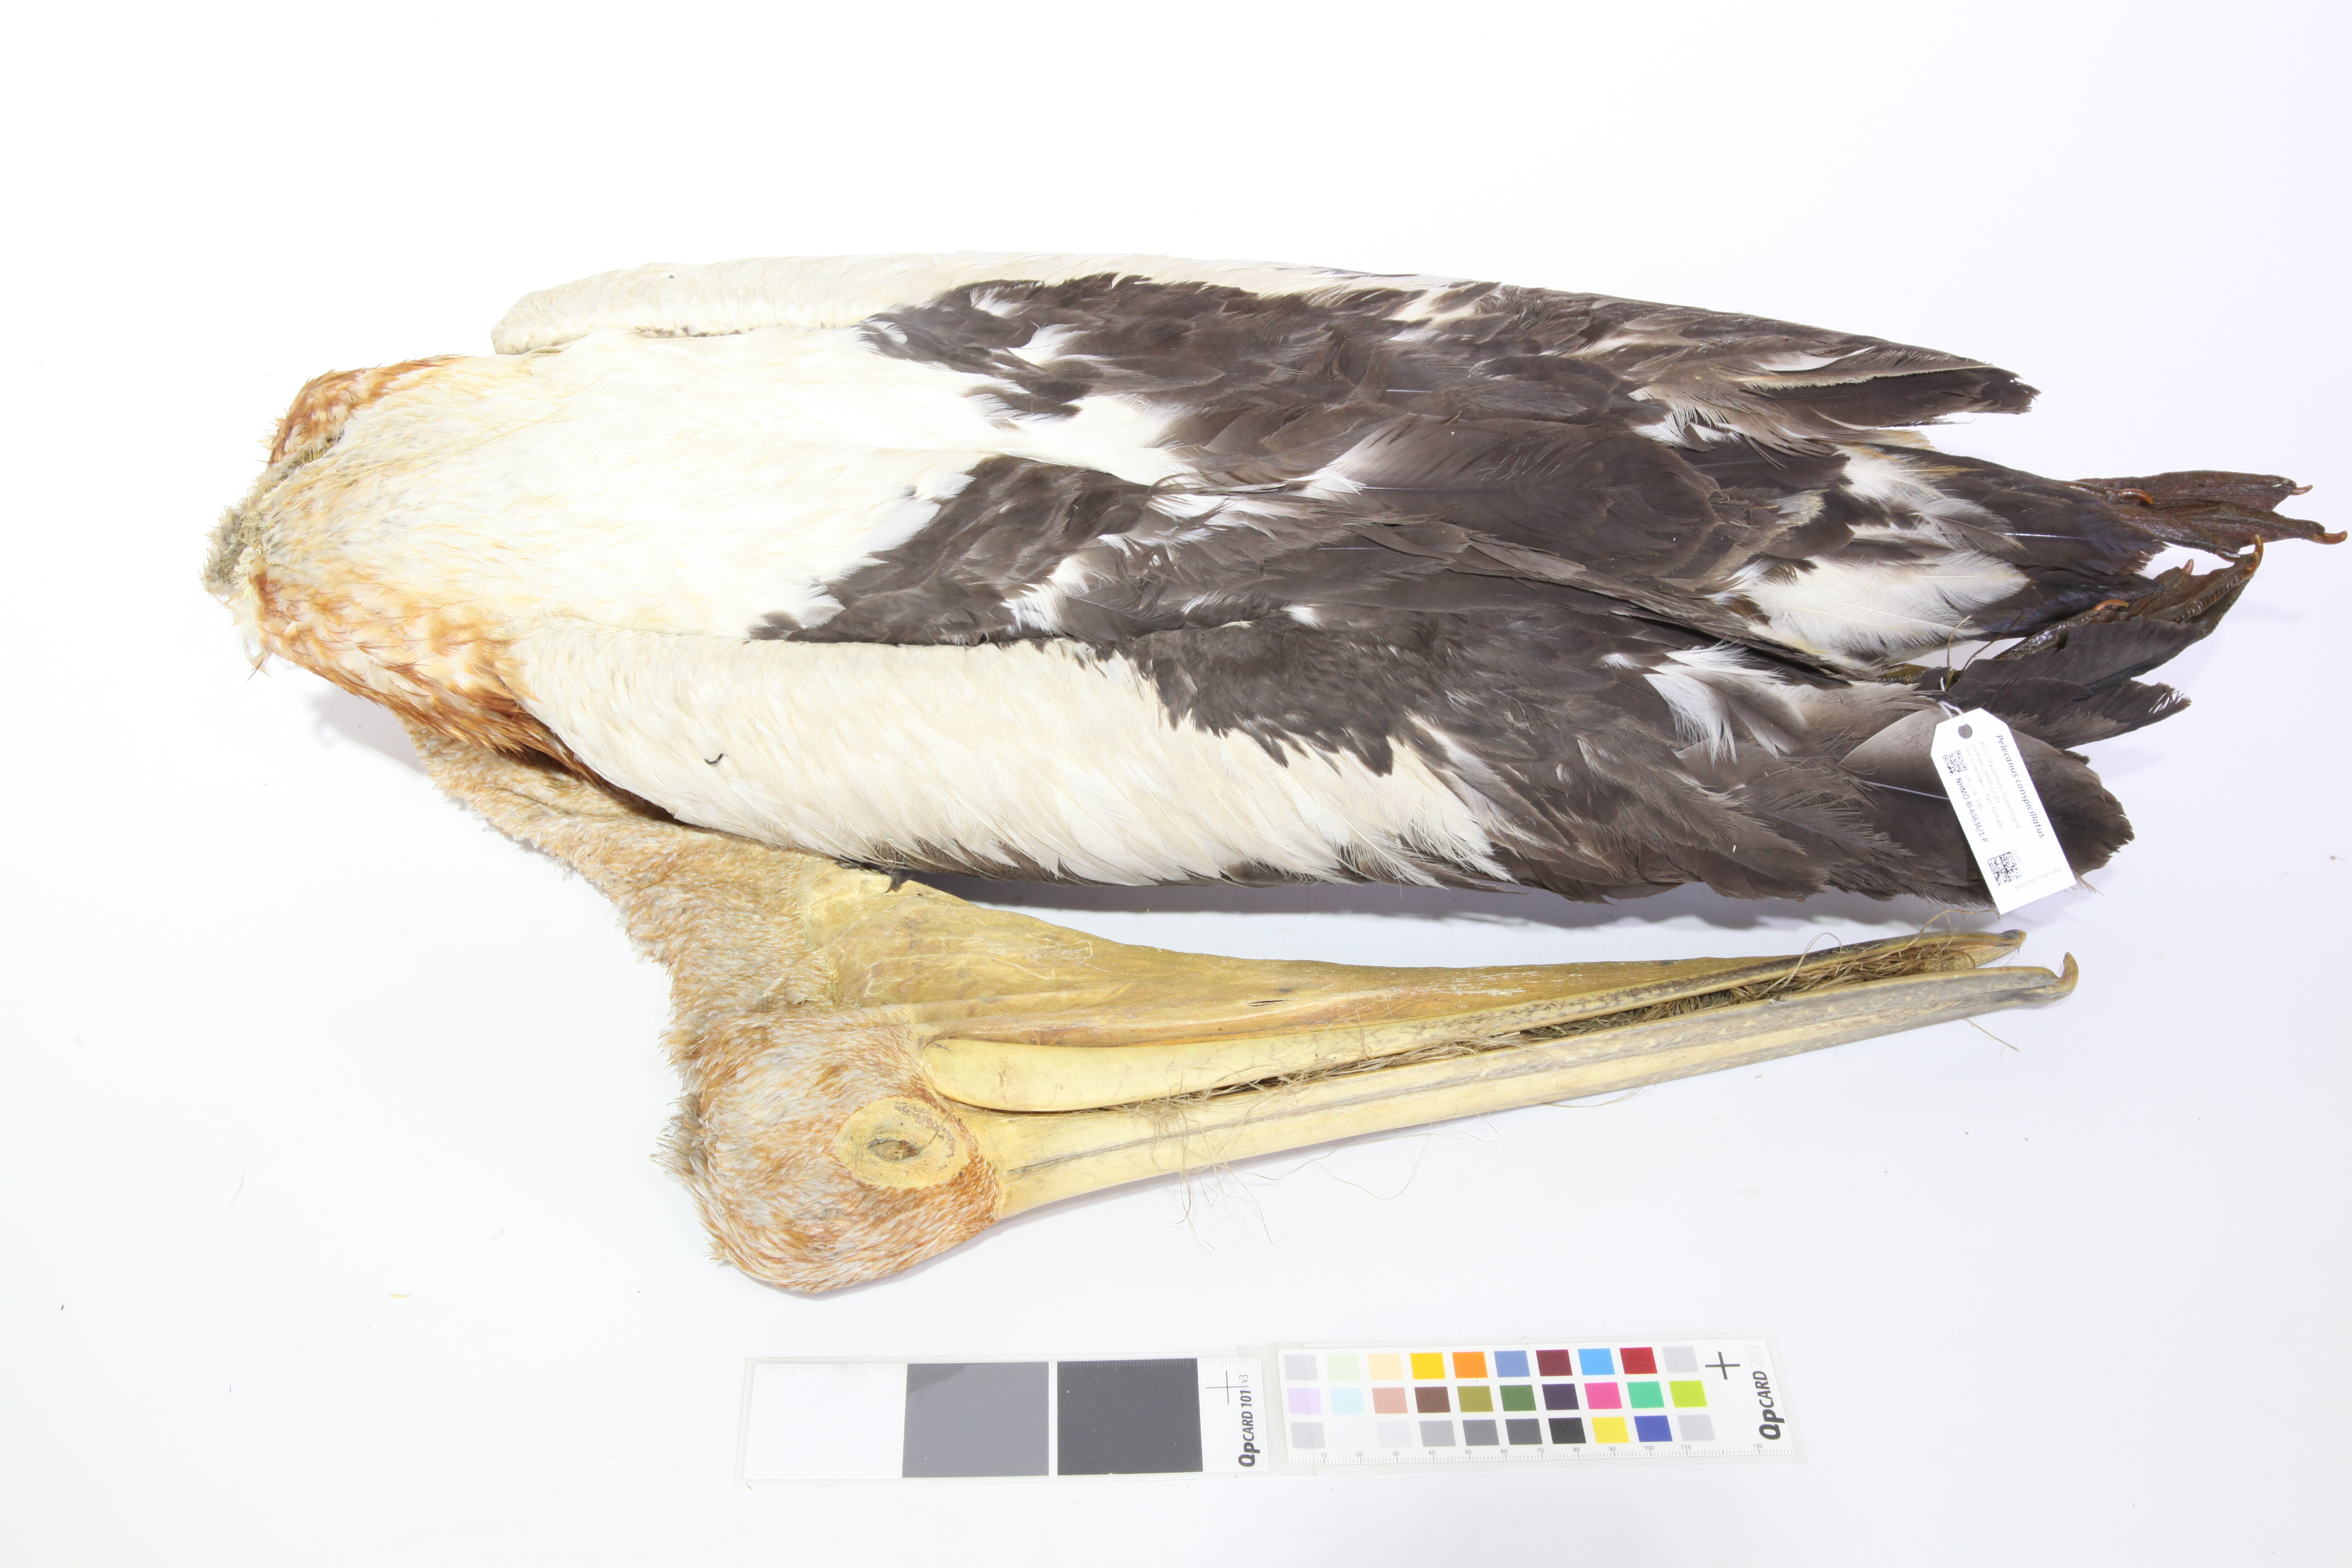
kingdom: Animalia
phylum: Chordata
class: Aves
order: Pelecaniformes
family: Pelecanidae
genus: Pelecanus
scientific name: Pelecanus conspicillatus
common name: Australian pelican
